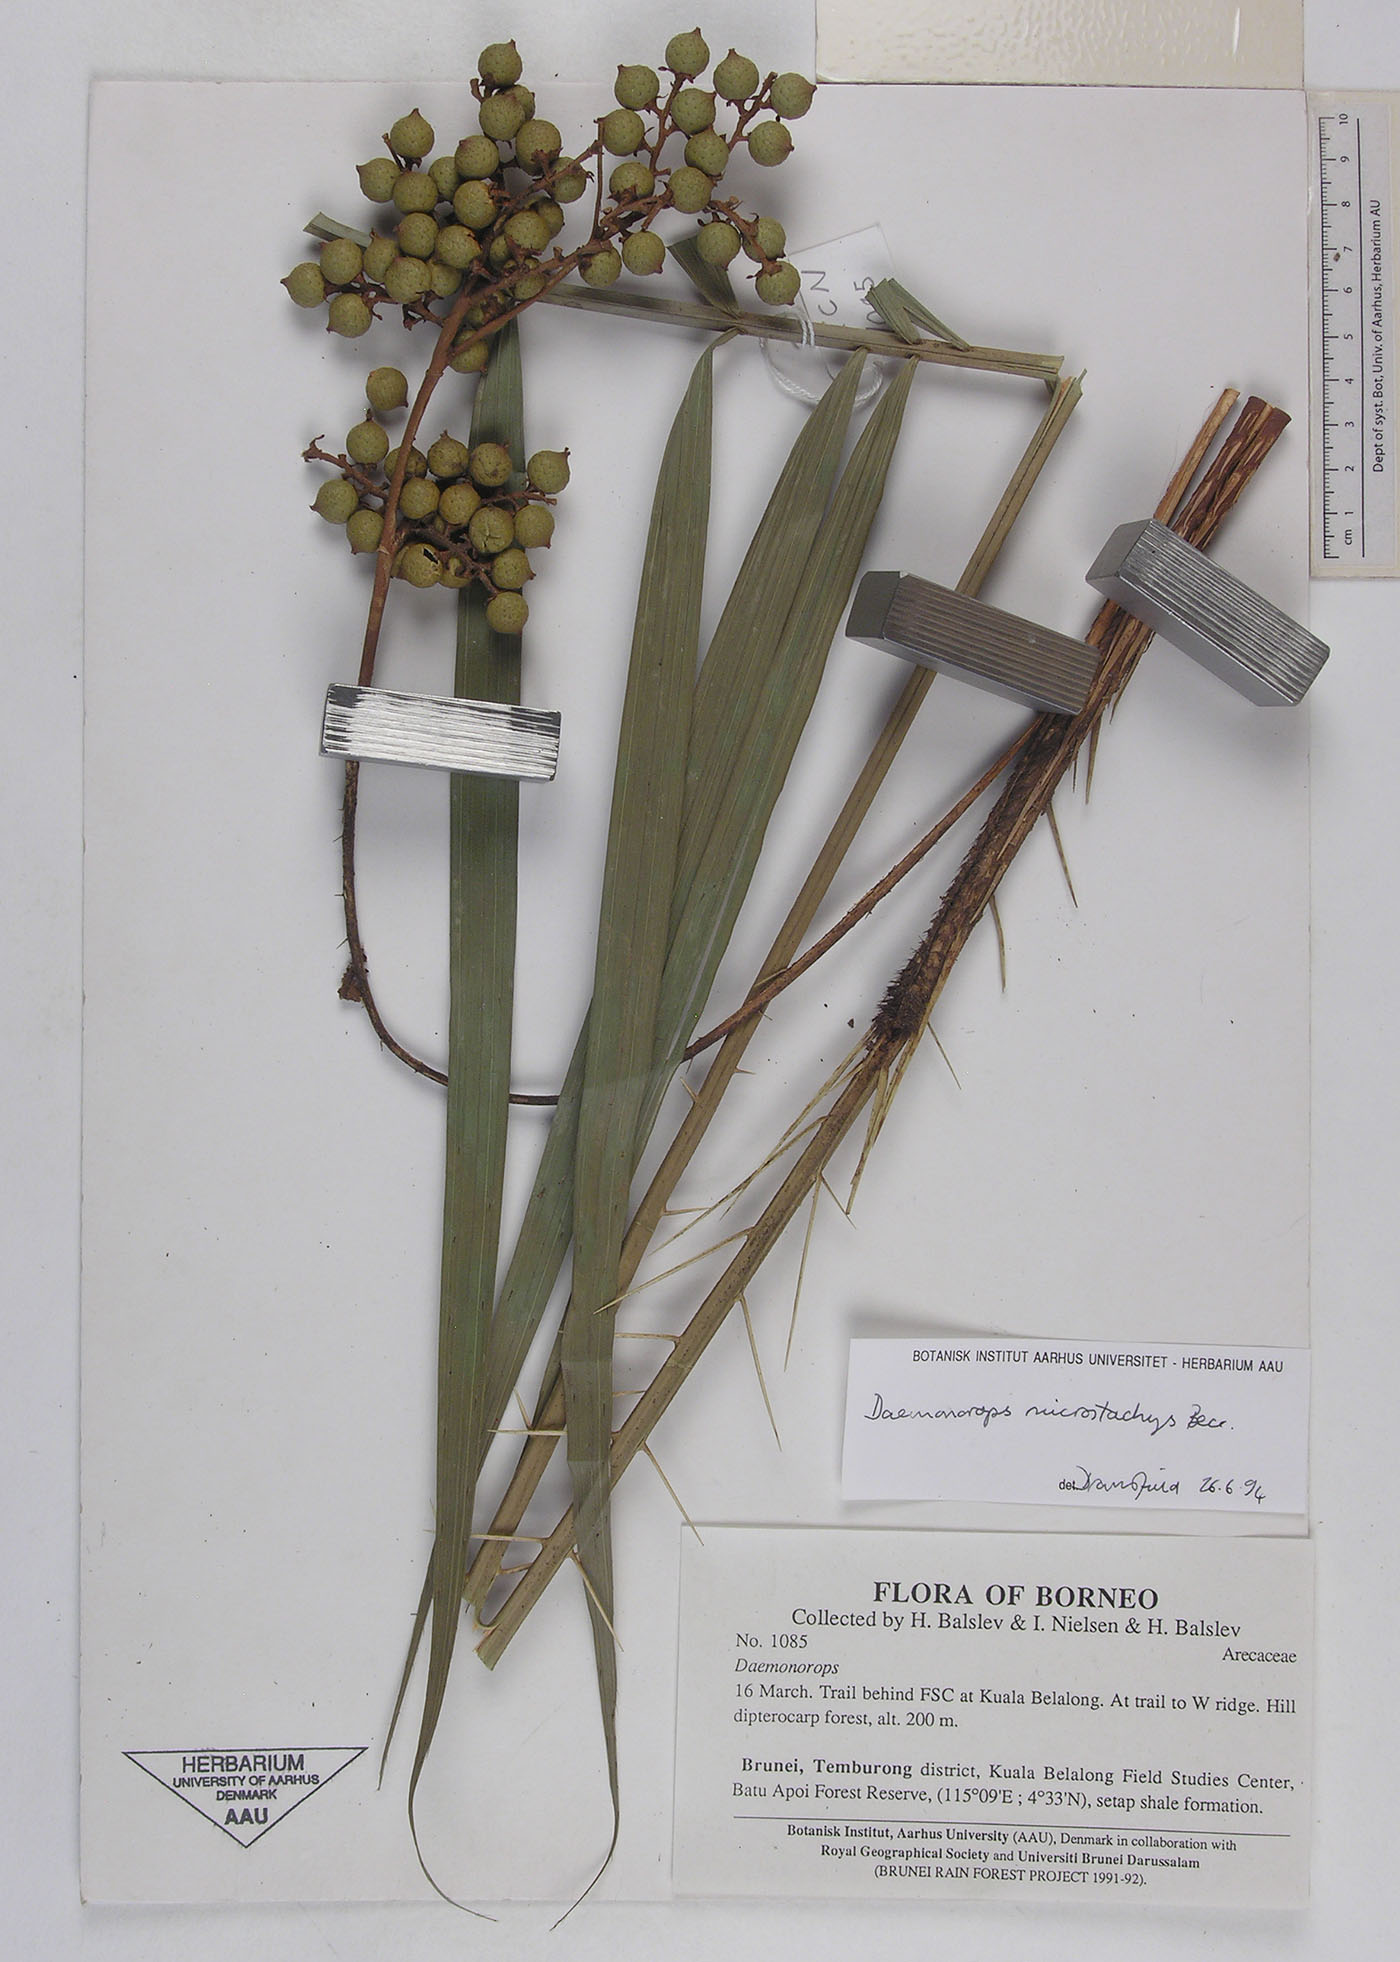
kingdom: Plantae
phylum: Tracheophyta
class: Liliopsida
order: Arecales
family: Arecaceae
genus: Calamus
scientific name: Calamus kunstleri
